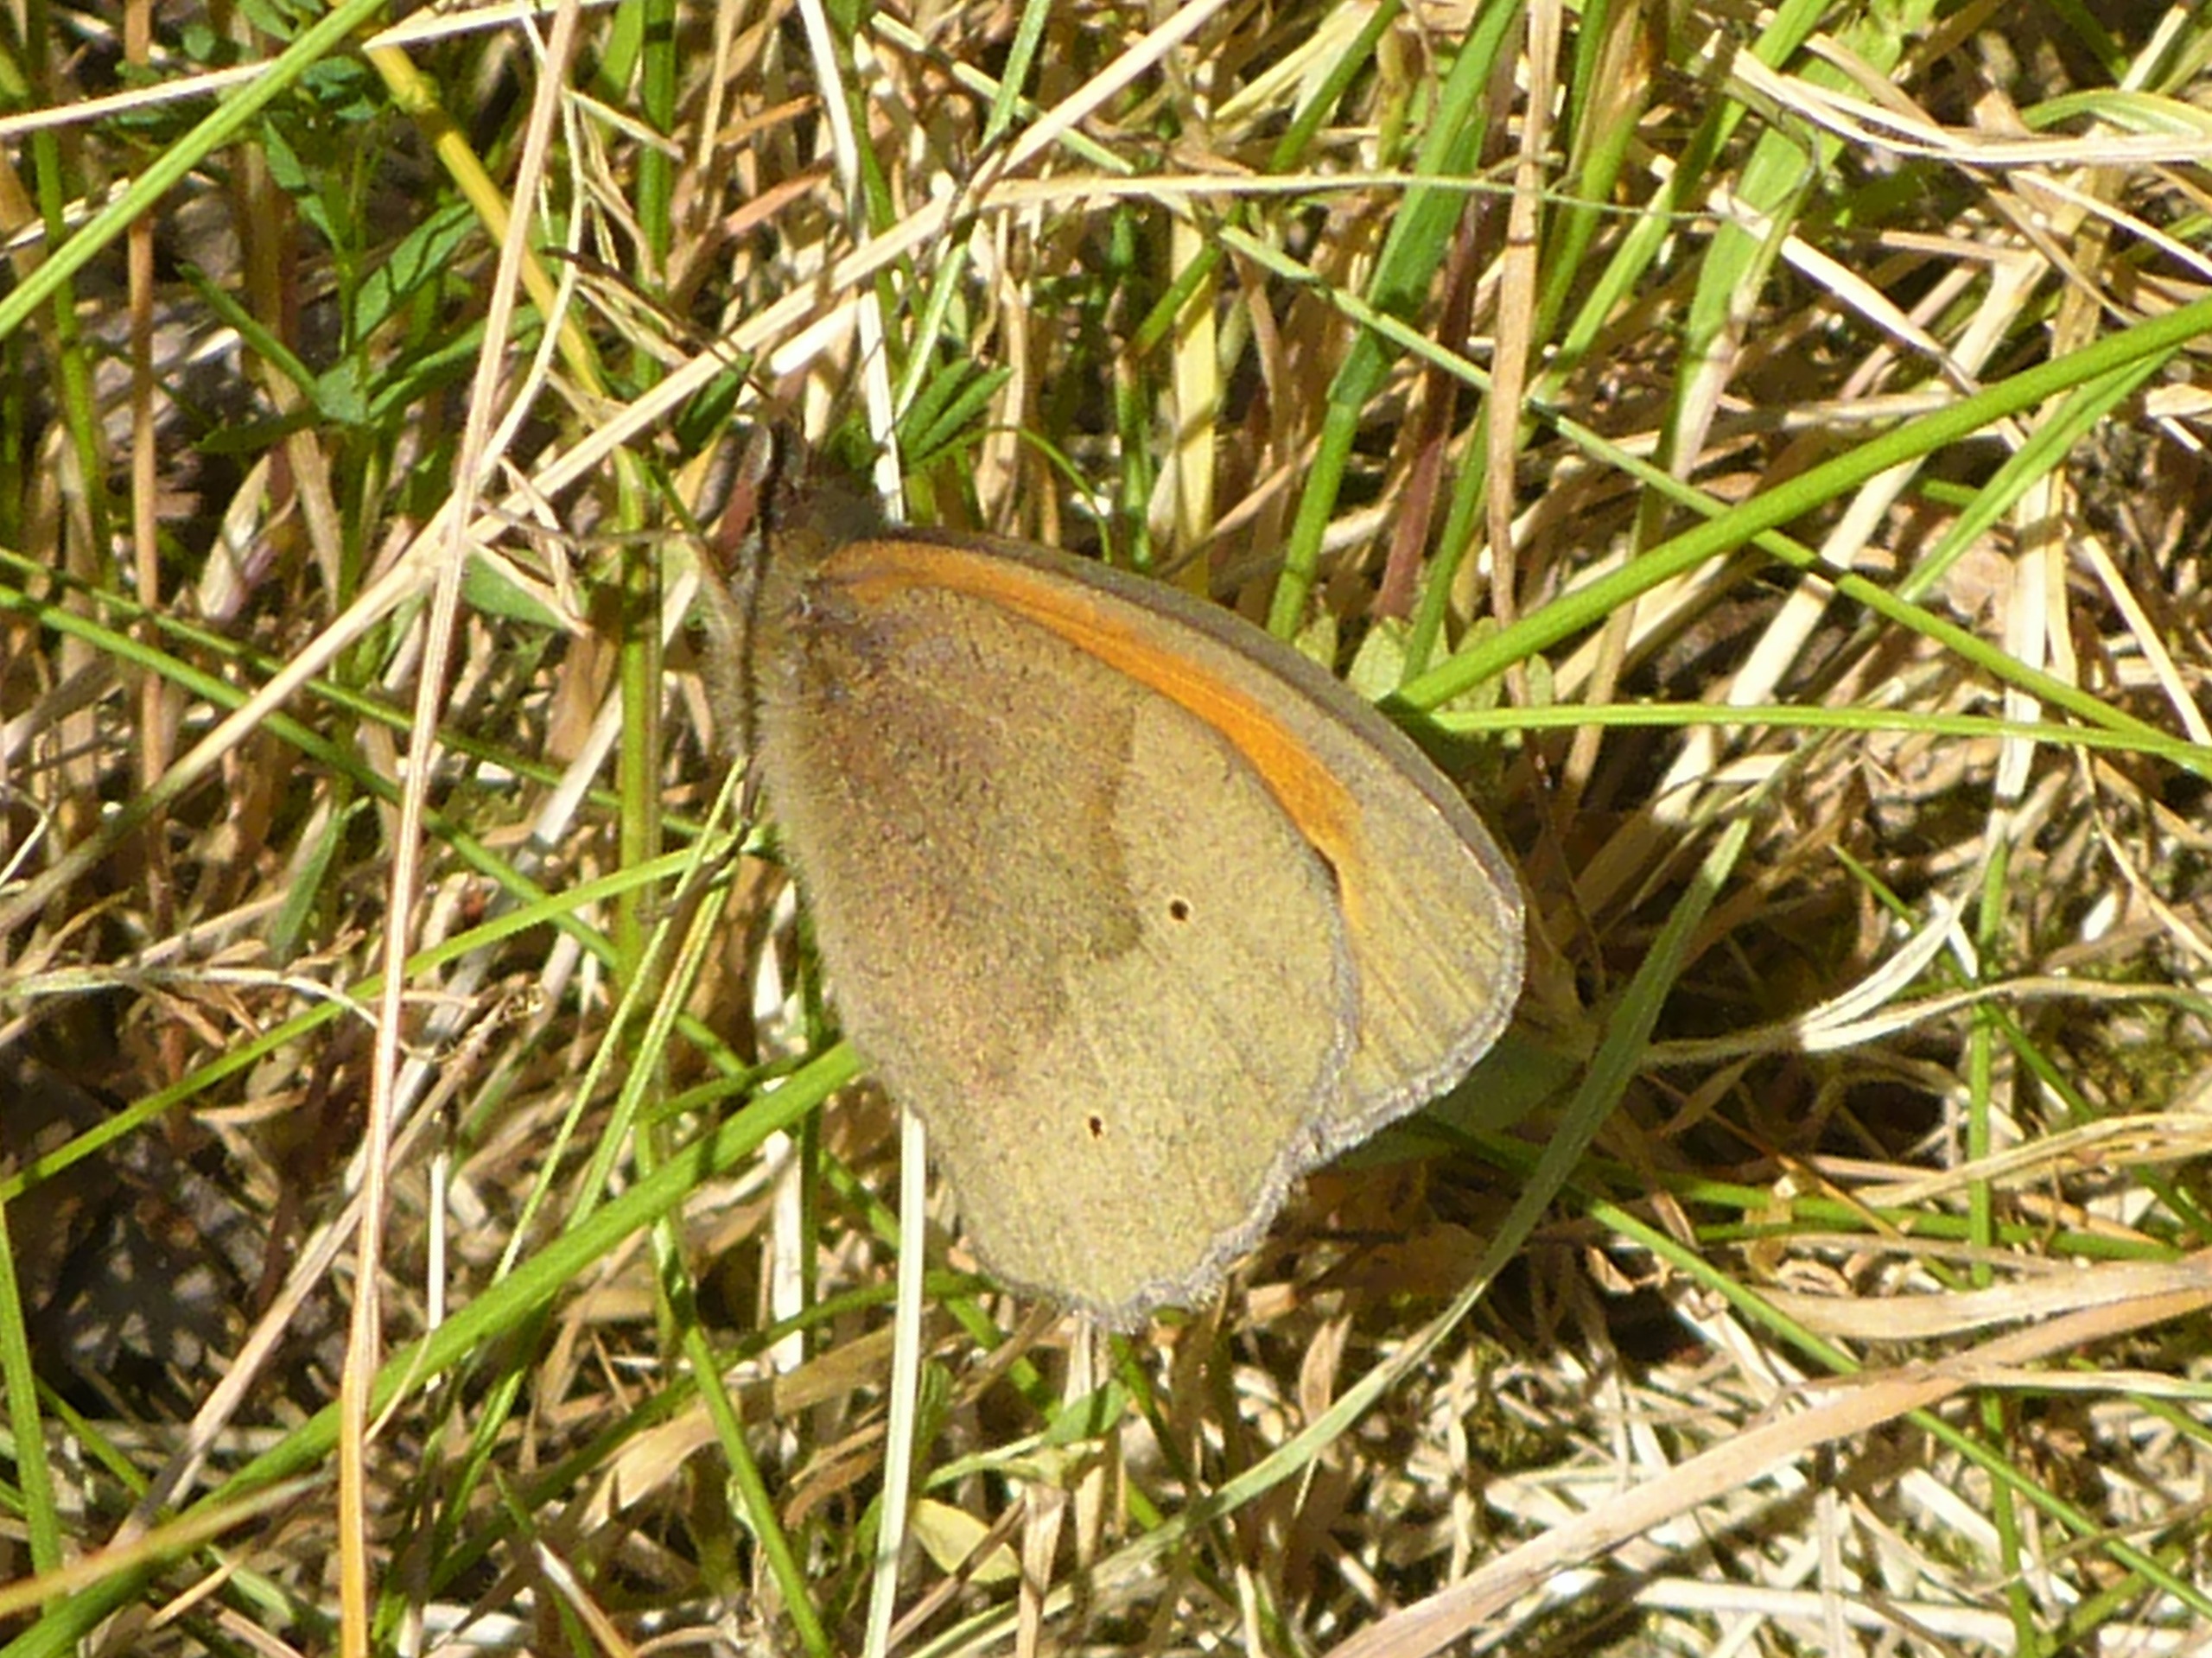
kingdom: Animalia
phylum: Arthropoda
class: Insecta
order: Lepidoptera
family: Nymphalidae
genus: Maniola
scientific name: Maniola jurtina
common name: Græsrandøje
